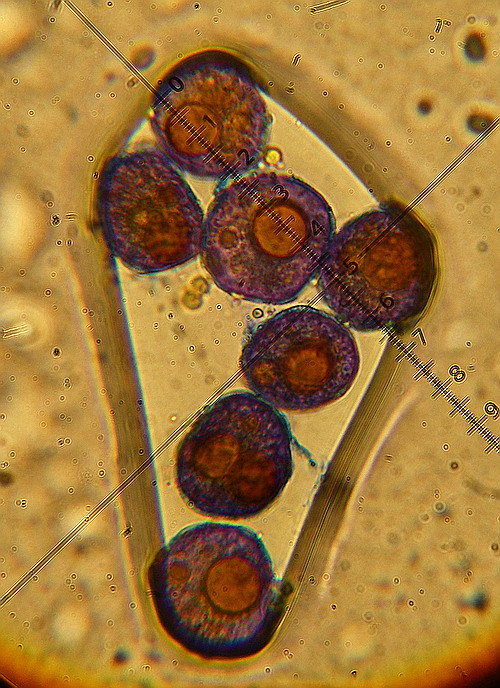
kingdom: Fungi
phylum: Basidiomycota
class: Pucciniomycetes
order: Pucciniales
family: Pucciniaceae
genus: Puccinia
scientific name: Puccinia urticata
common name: nældegalle-tvecellerust
